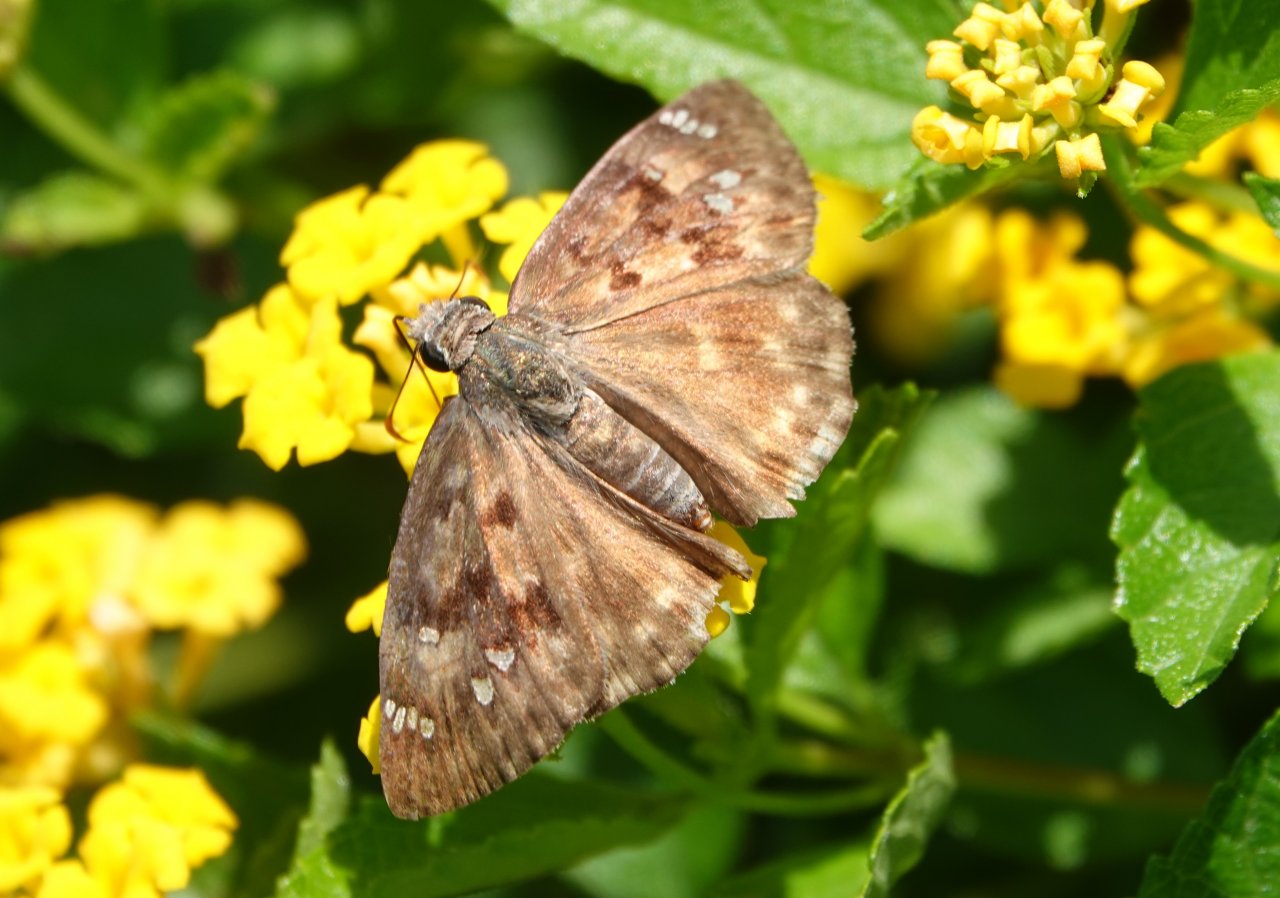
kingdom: Animalia
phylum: Arthropoda
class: Insecta
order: Lepidoptera
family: Hesperiidae
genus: Gesta
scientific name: Gesta
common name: Horace's Duskywing
